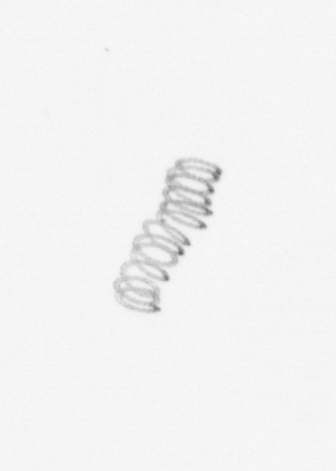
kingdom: Chromista
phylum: Ochrophyta
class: Bacillariophyceae
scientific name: Bacillariophyceae
